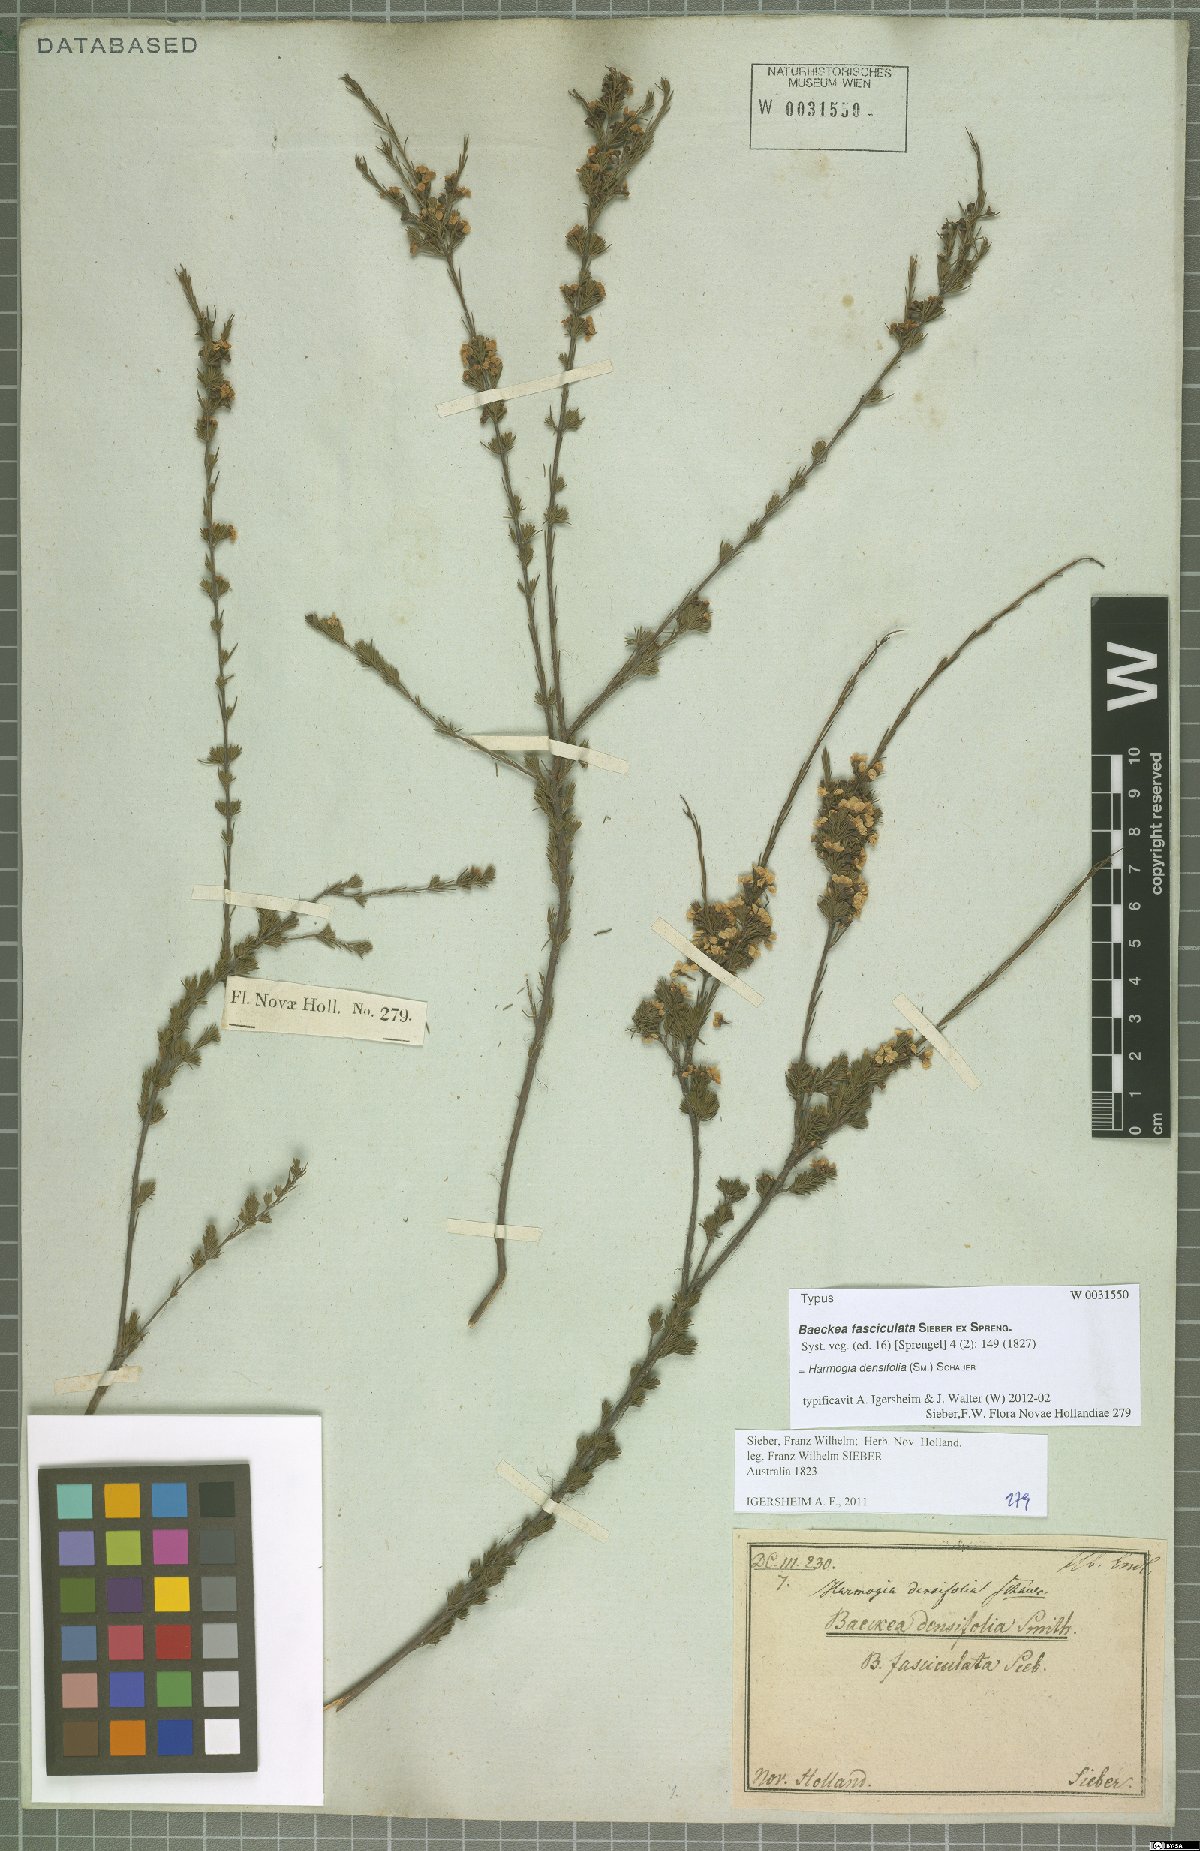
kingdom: Plantae
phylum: Tracheophyta
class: Magnoliopsida
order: Myrtales
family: Myrtaceae
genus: Harmogia
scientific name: Harmogia densifolia
